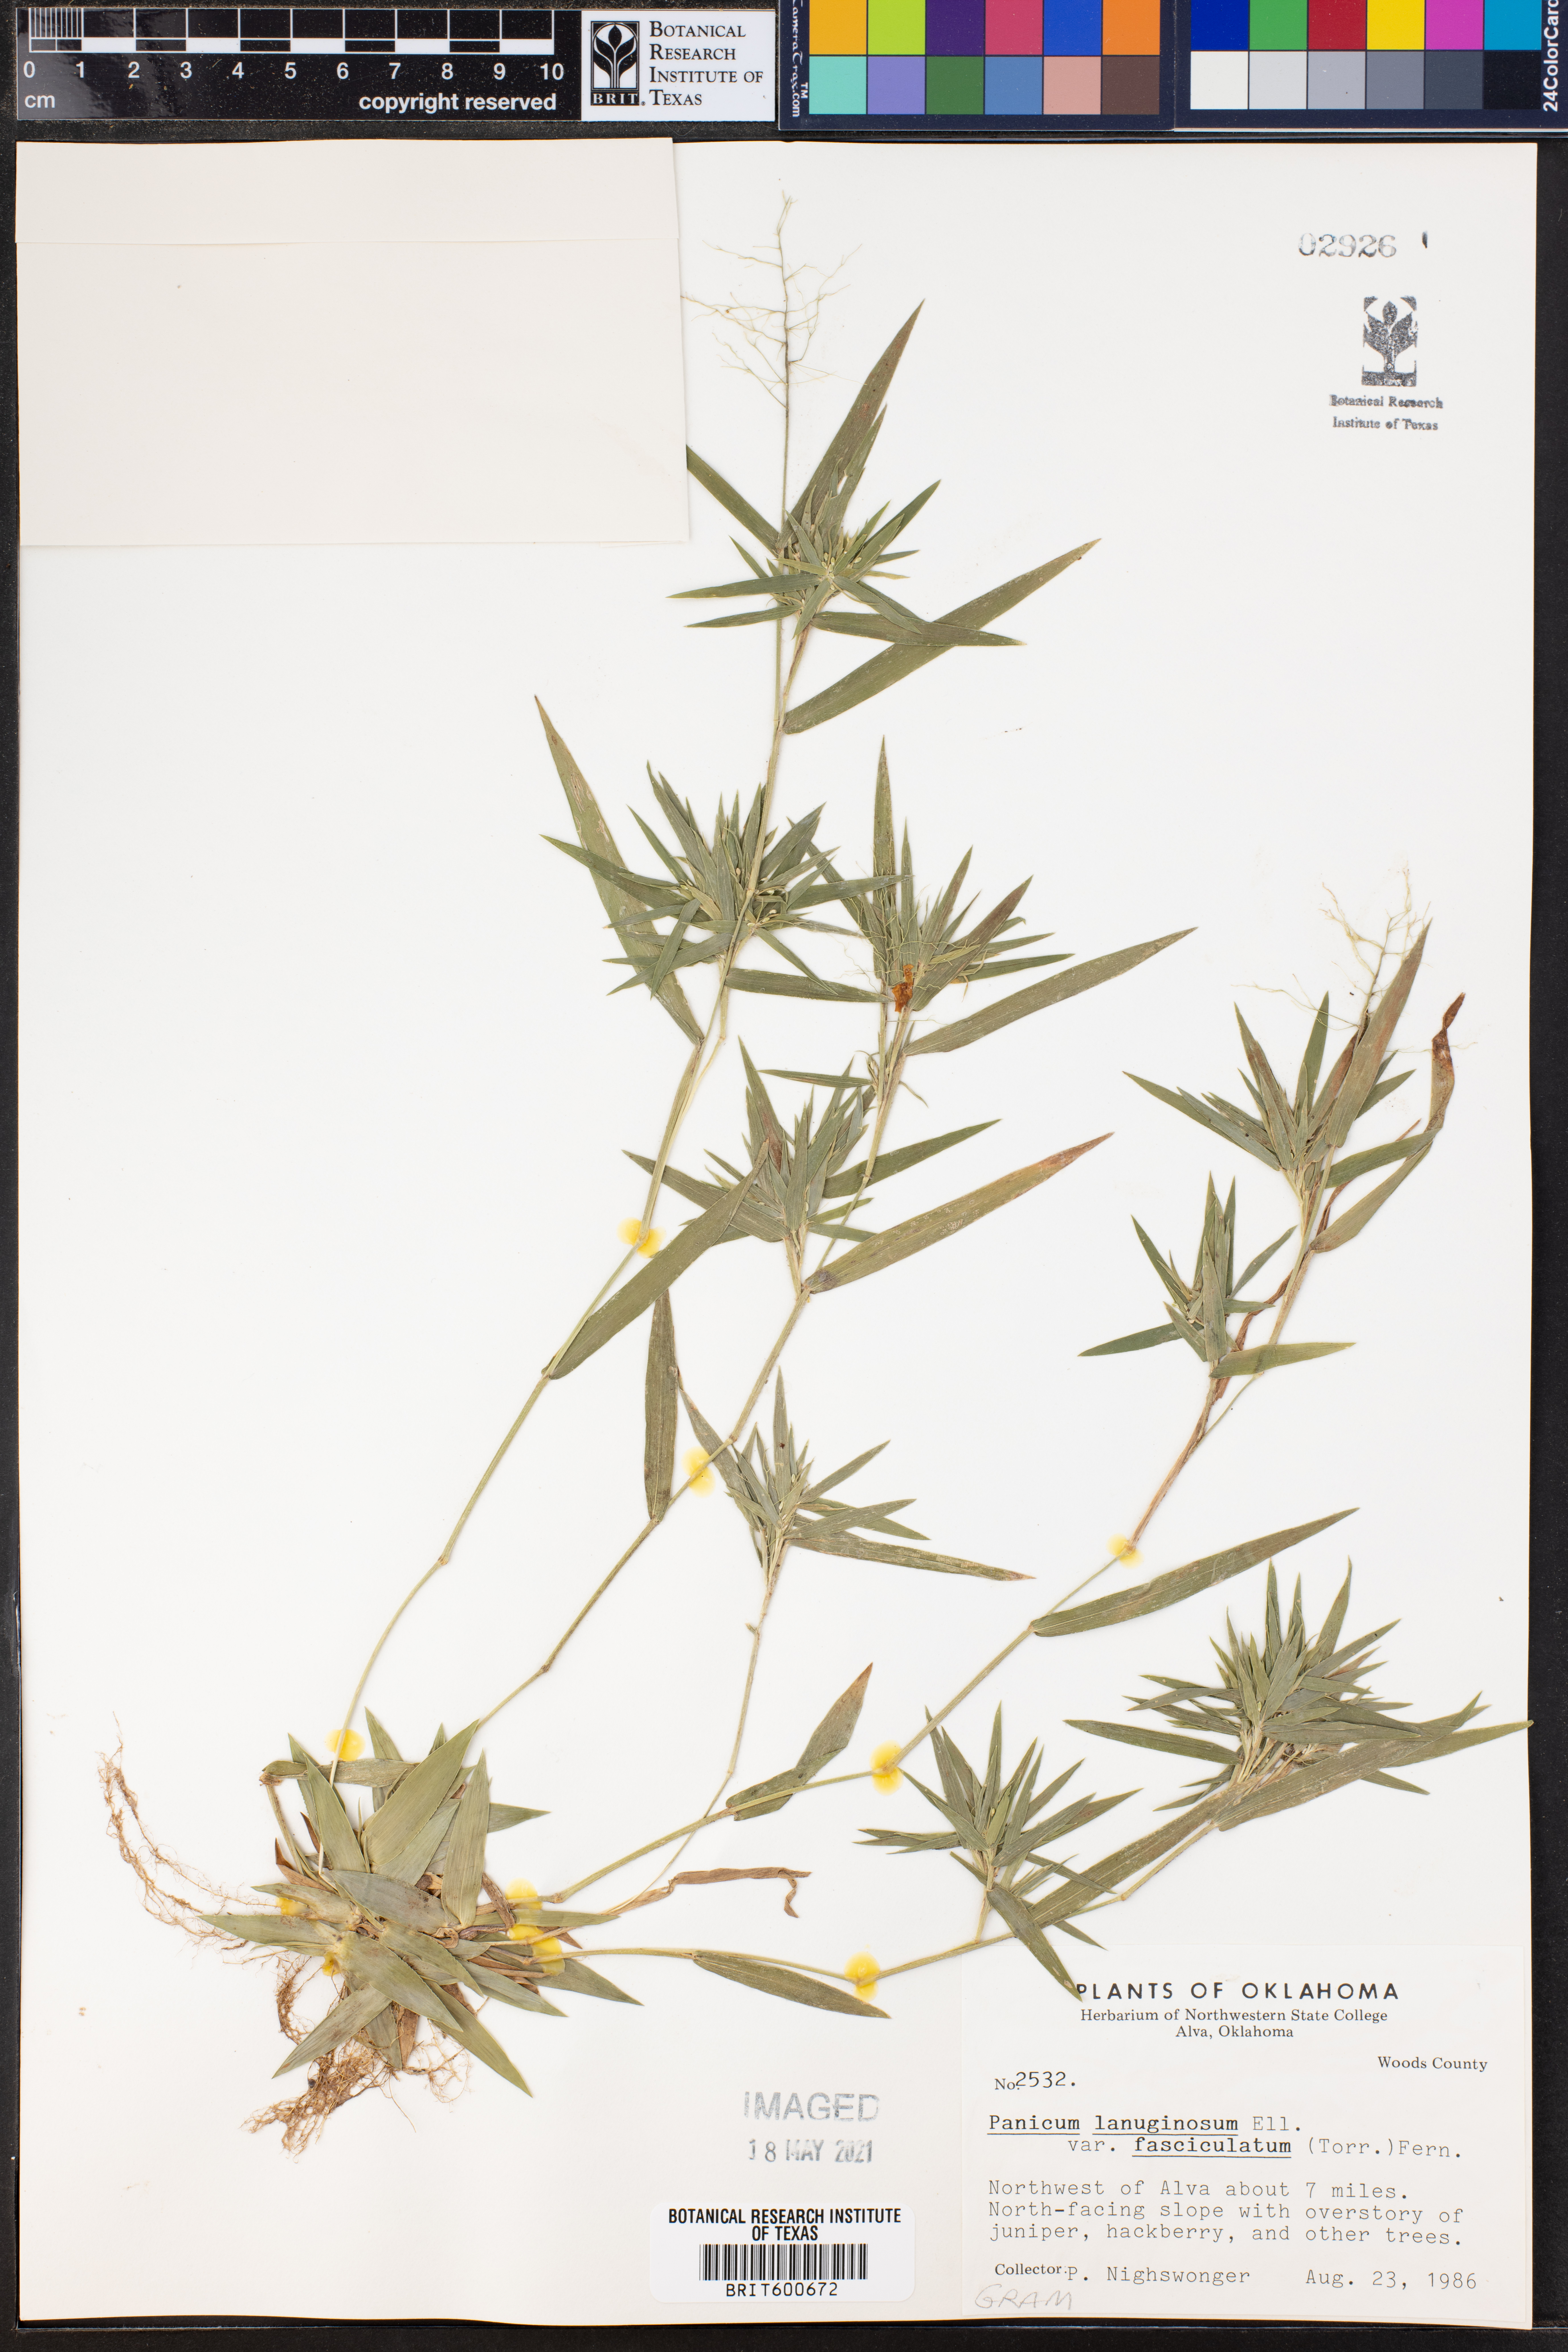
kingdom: Plantae
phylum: Tracheophyta
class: Liliopsida
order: Poales
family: Poaceae
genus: Dichanthelium
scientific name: Dichanthelium lanuginosum
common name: Woolly panicgrass
